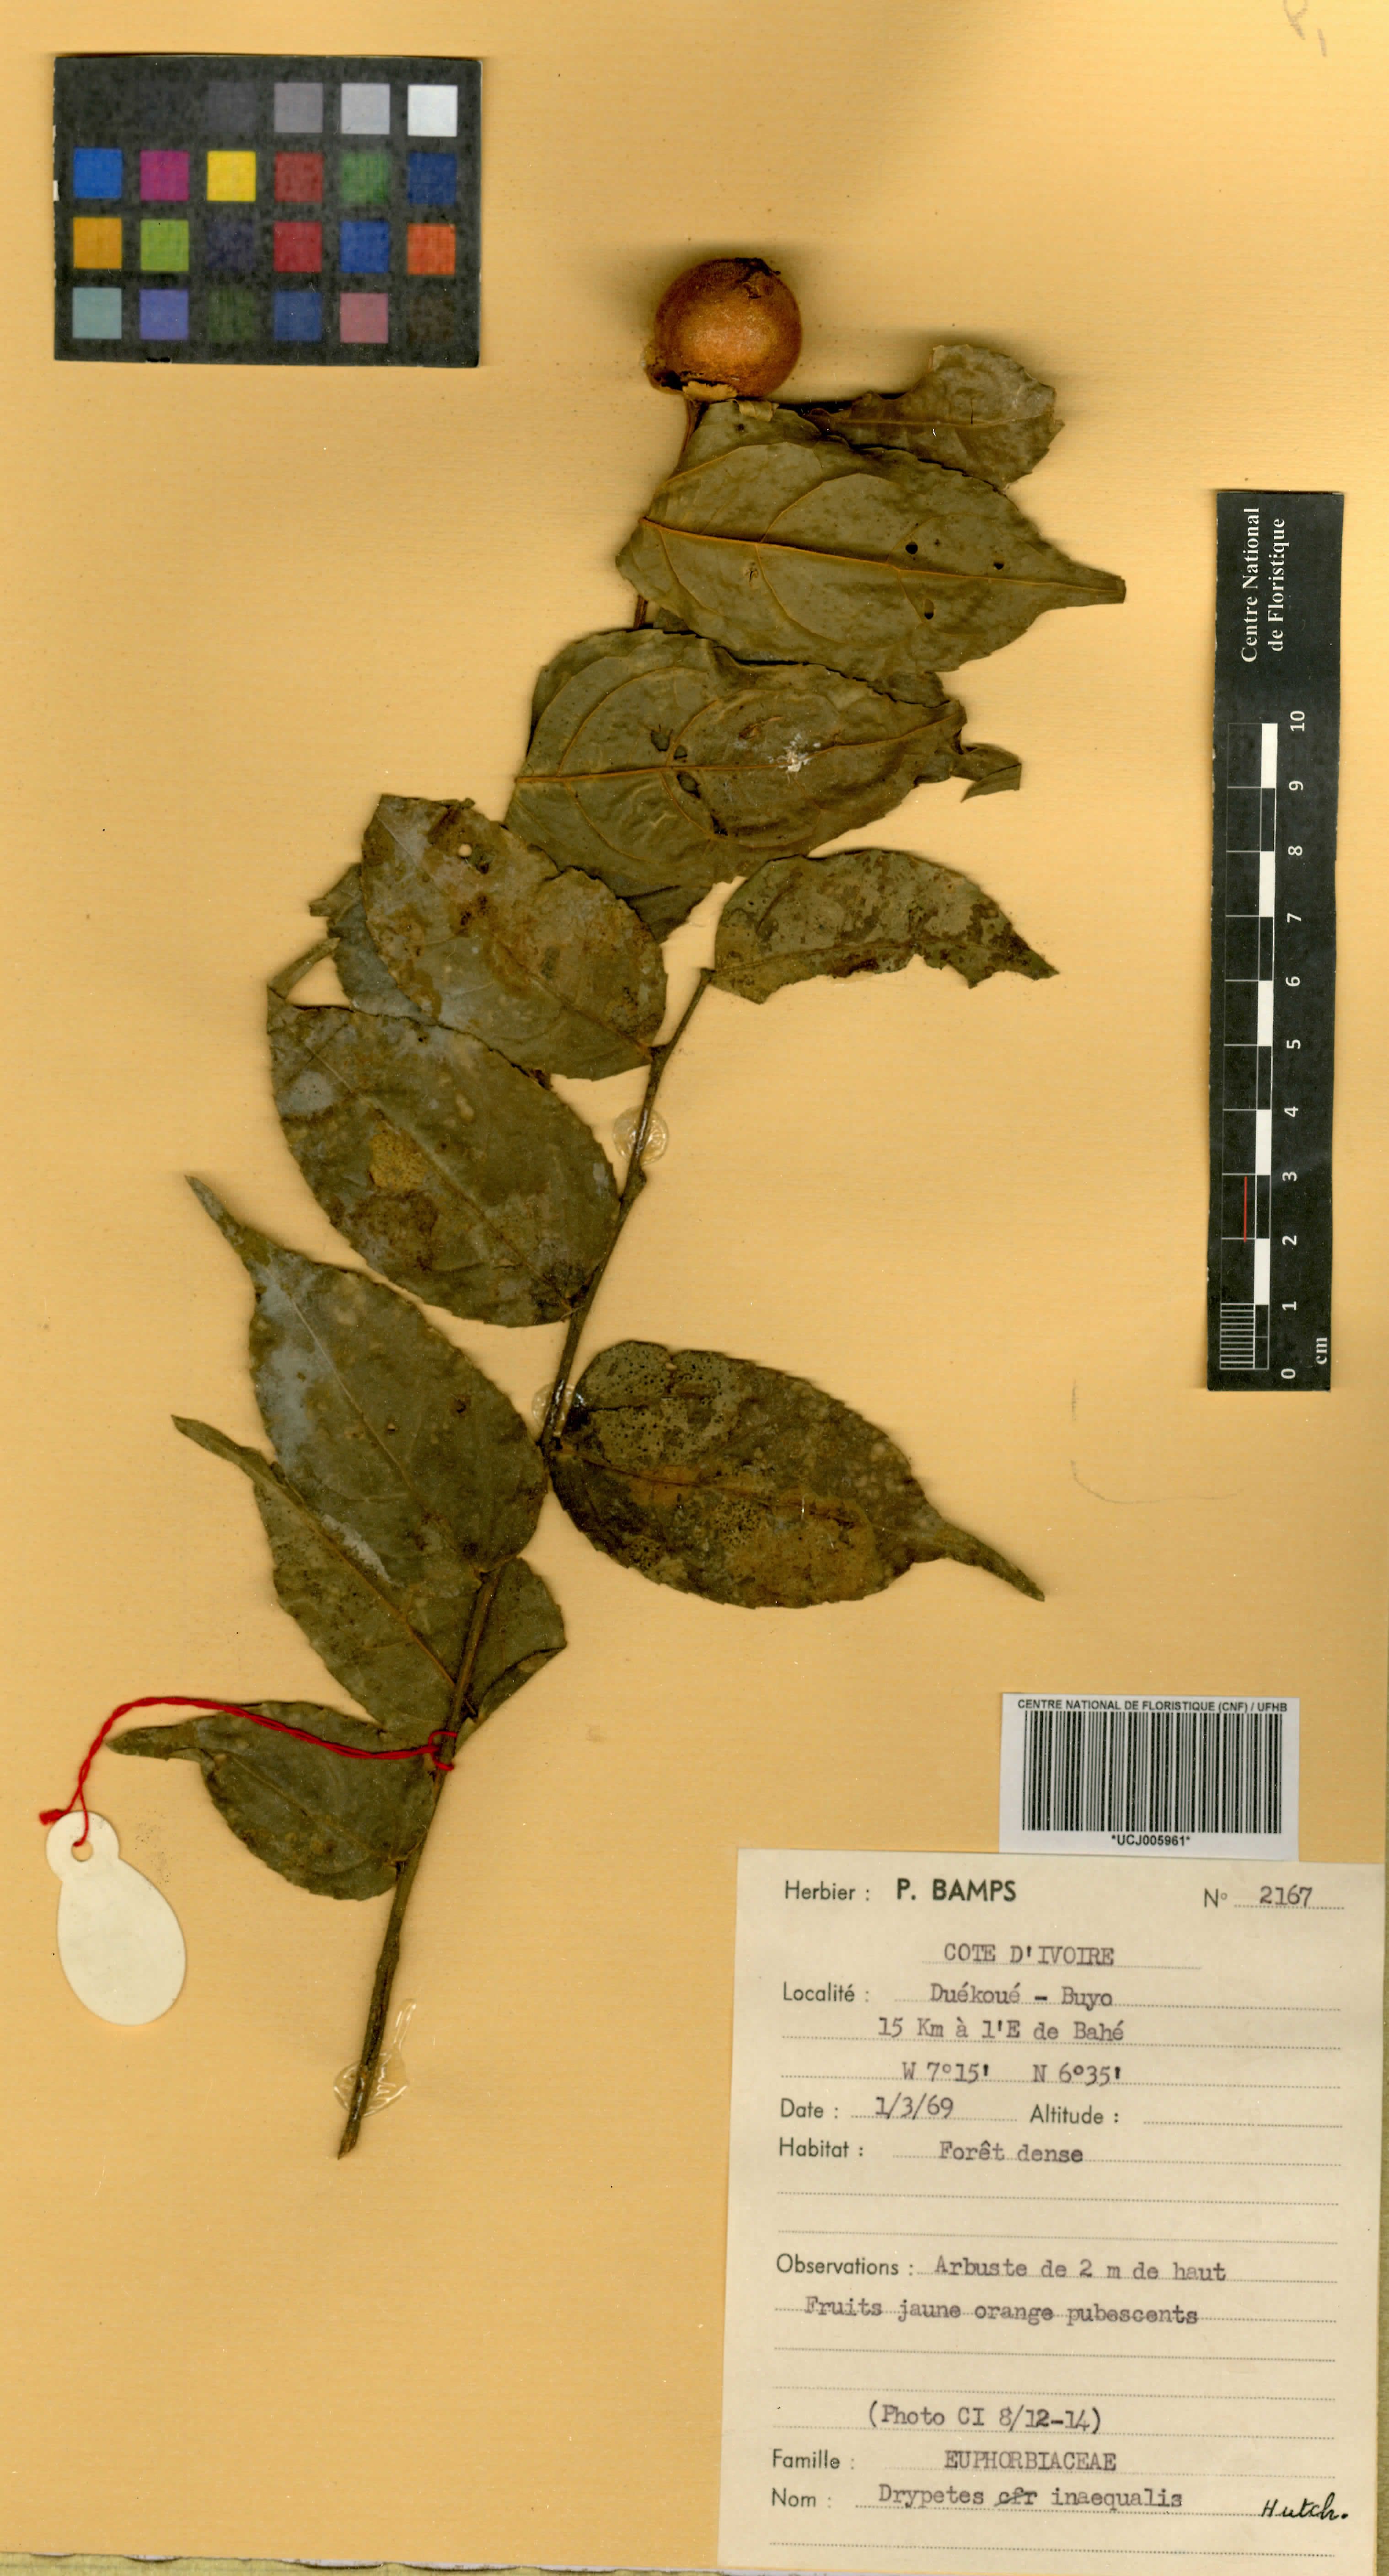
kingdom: Plantae
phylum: Tracheophyta
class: Magnoliopsida
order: Malpighiales
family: Putranjivaceae
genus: Drypetes
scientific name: Drypetes inaequalis
